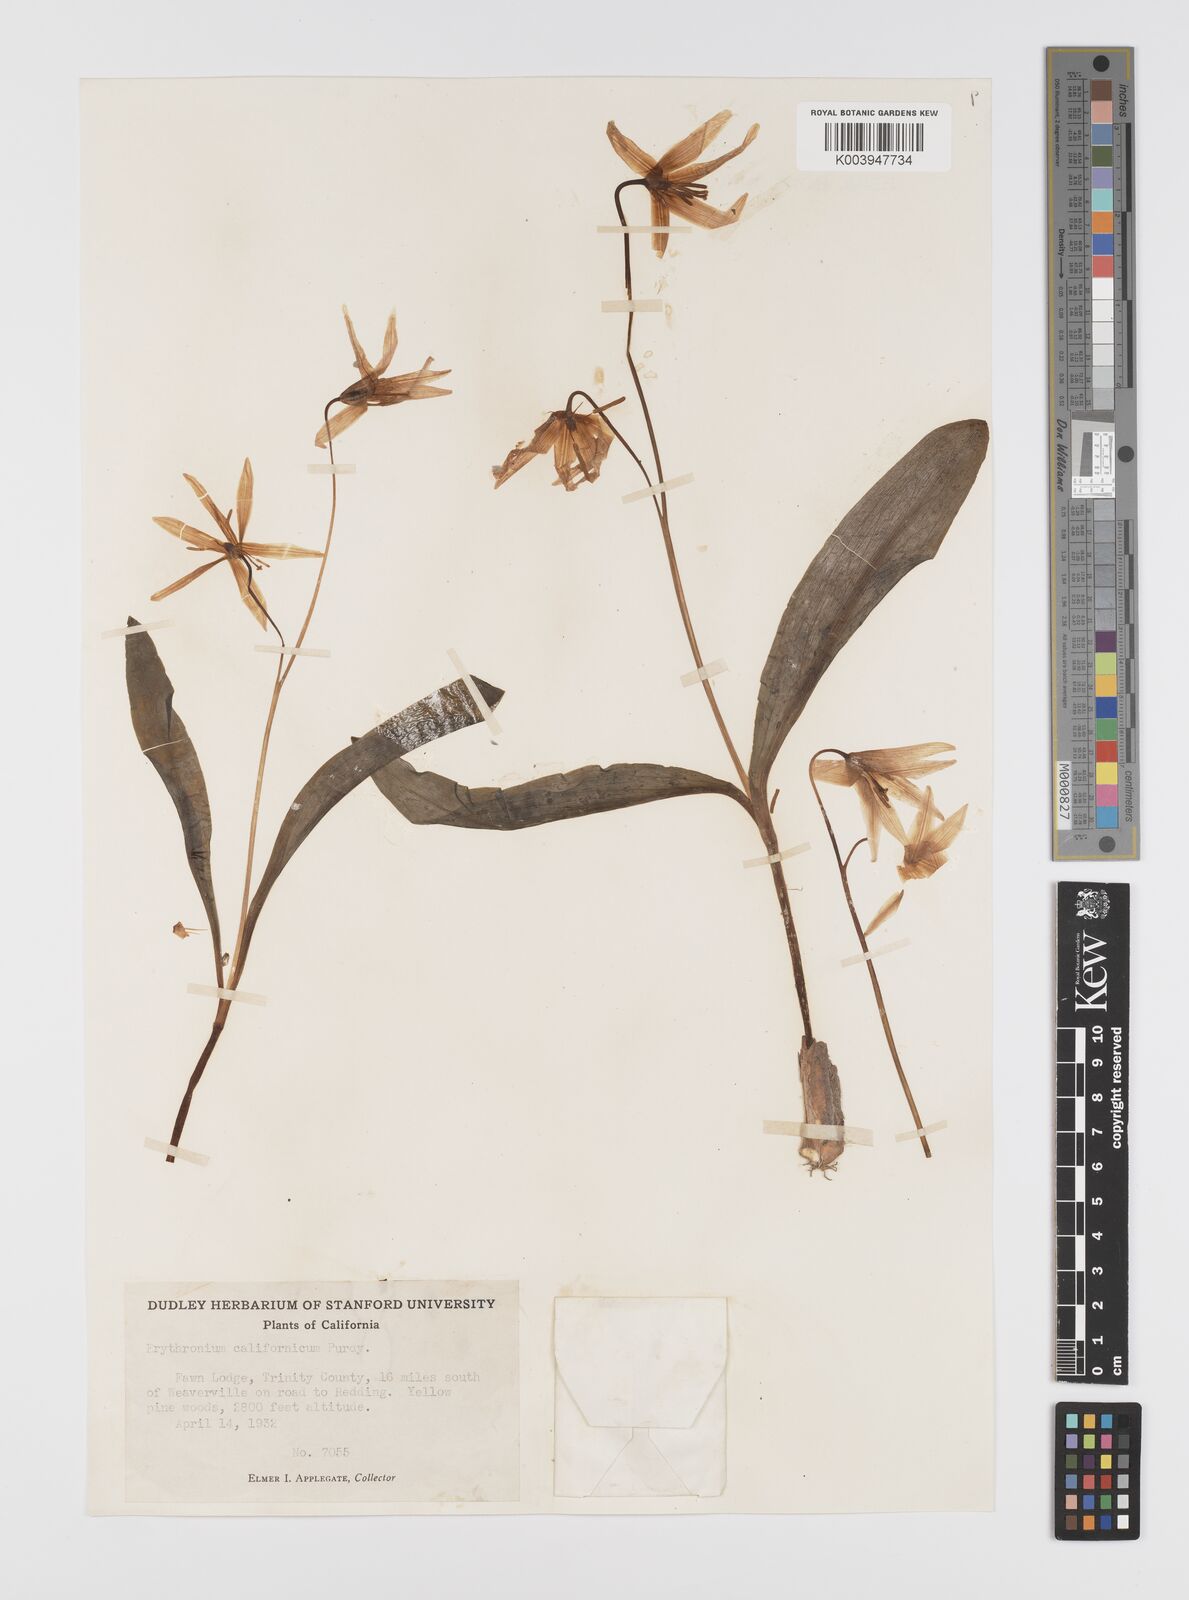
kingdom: Plantae
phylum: Tracheophyta
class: Liliopsida
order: Liliales
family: Liliaceae
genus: Erythronium
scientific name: Erythronium californicum
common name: Fawn-lily
